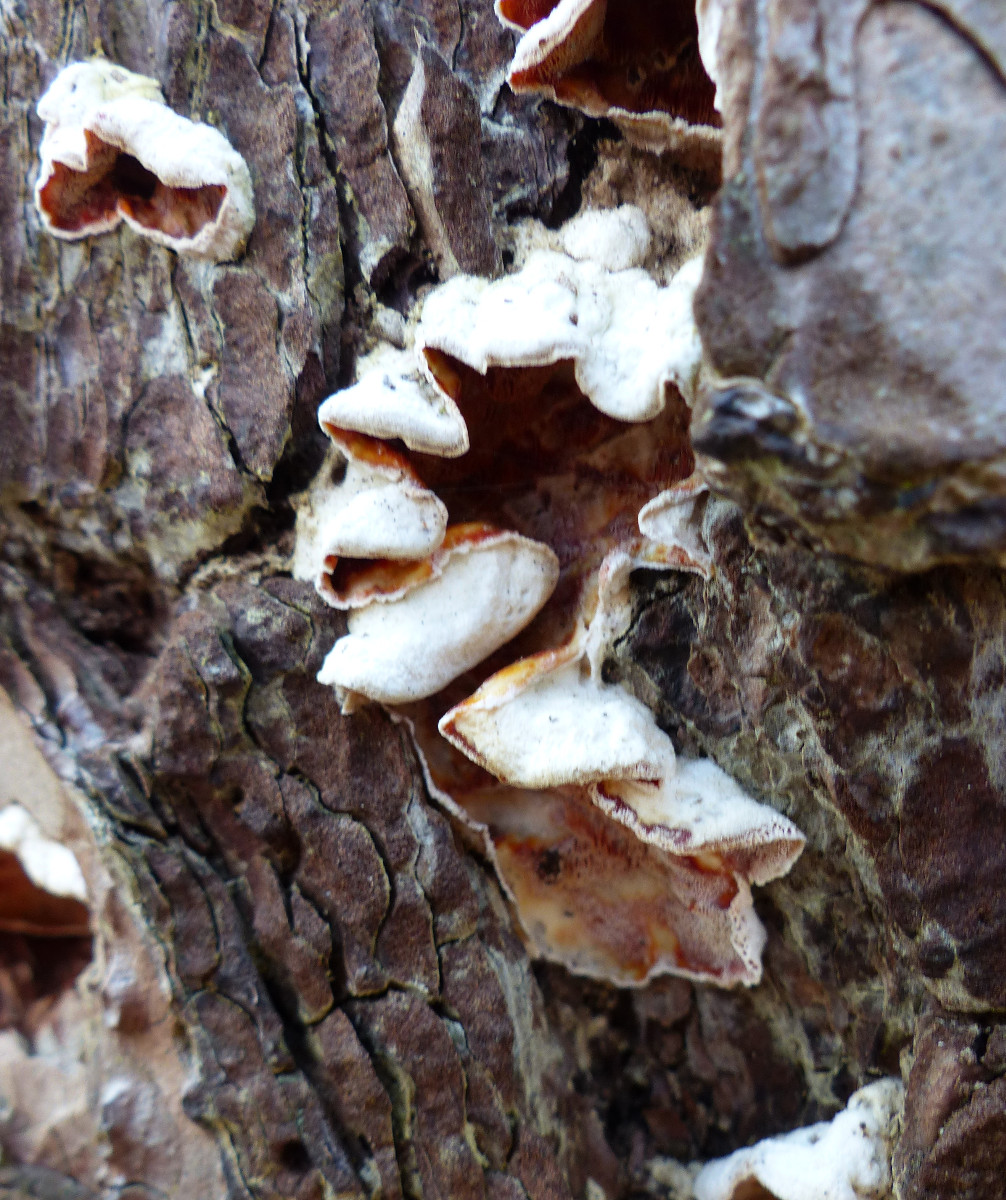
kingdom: Fungi
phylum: Basidiomycota
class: Agaricomycetes
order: Polyporales
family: Incrustoporiaceae
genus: Skeletocutis
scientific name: Skeletocutis amorpha
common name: orange krystalporesvamp
